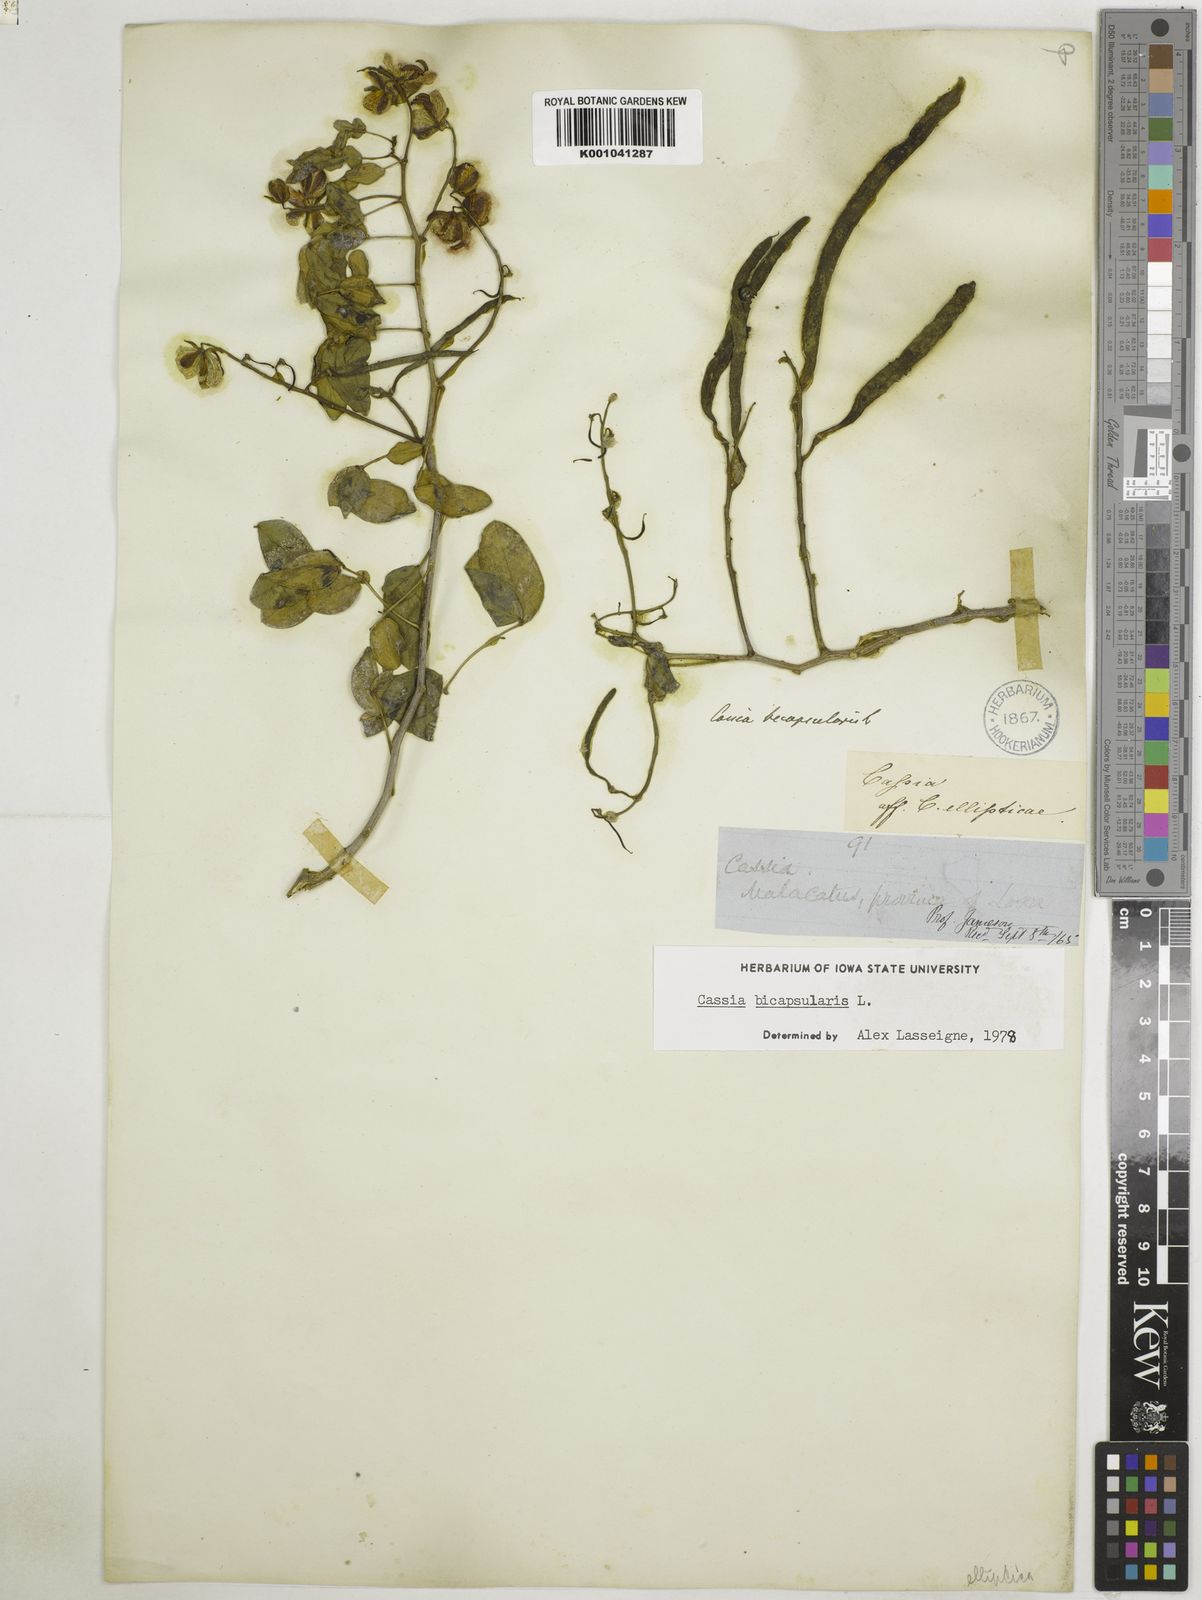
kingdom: Plantae
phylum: Tracheophyta
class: Magnoliopsida
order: Fabales
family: Fabaceae
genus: Senna
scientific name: Senna bicapsularis
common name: Christmasbush
